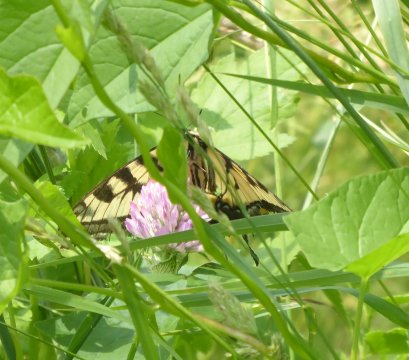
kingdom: Animalia
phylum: Arthropoda
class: Insecta
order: Lepidoptera
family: Papilionidae
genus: Pterourus
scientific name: Pterourus canadensis
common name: Canadian Tiger Swallowtail
